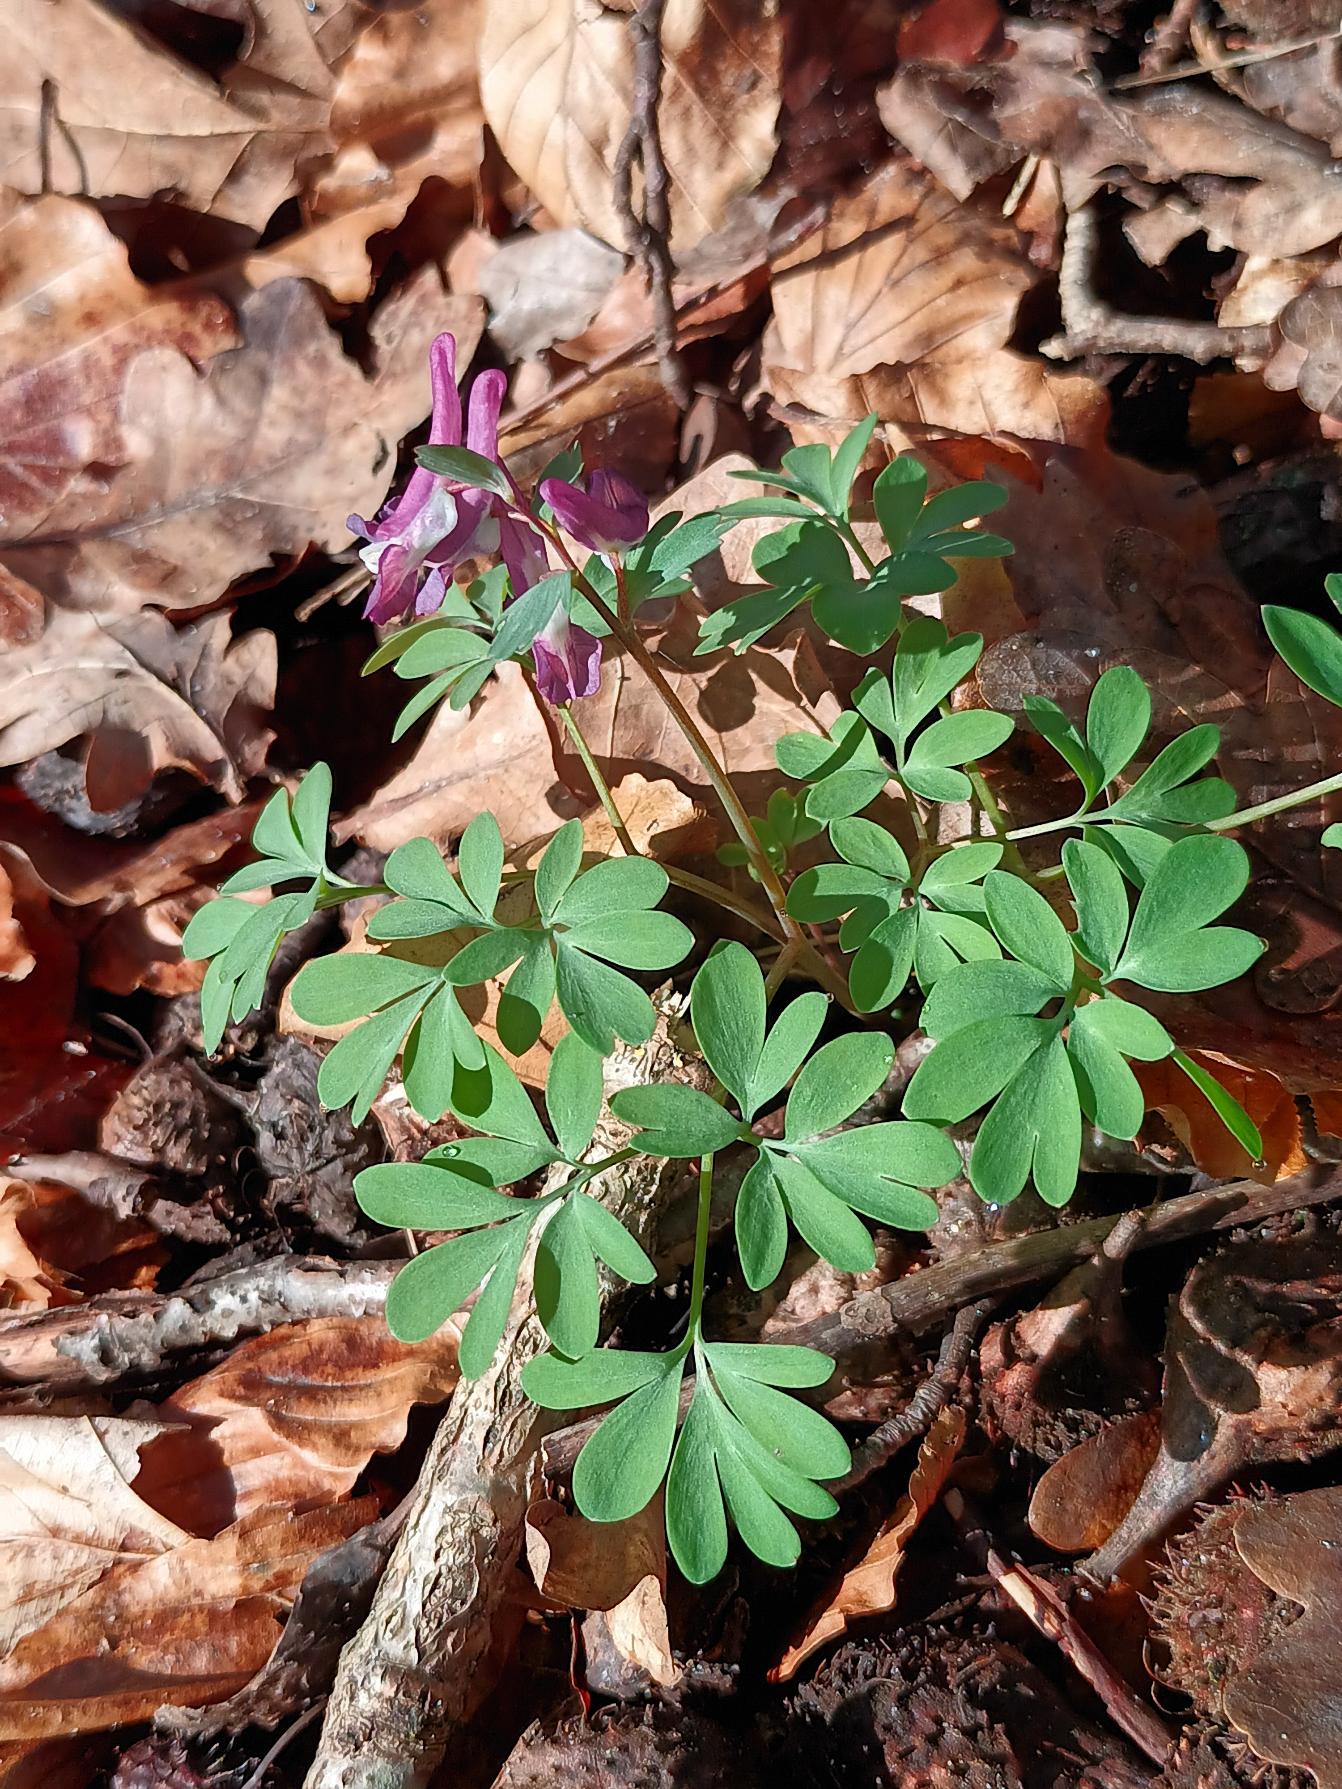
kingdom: Plantae
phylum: Tracheophyta
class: Magnoliopsida
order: Ranunculales
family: Papaveraceae
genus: Corydalis
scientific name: Corydalis solida
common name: Langstilket lærkespore
